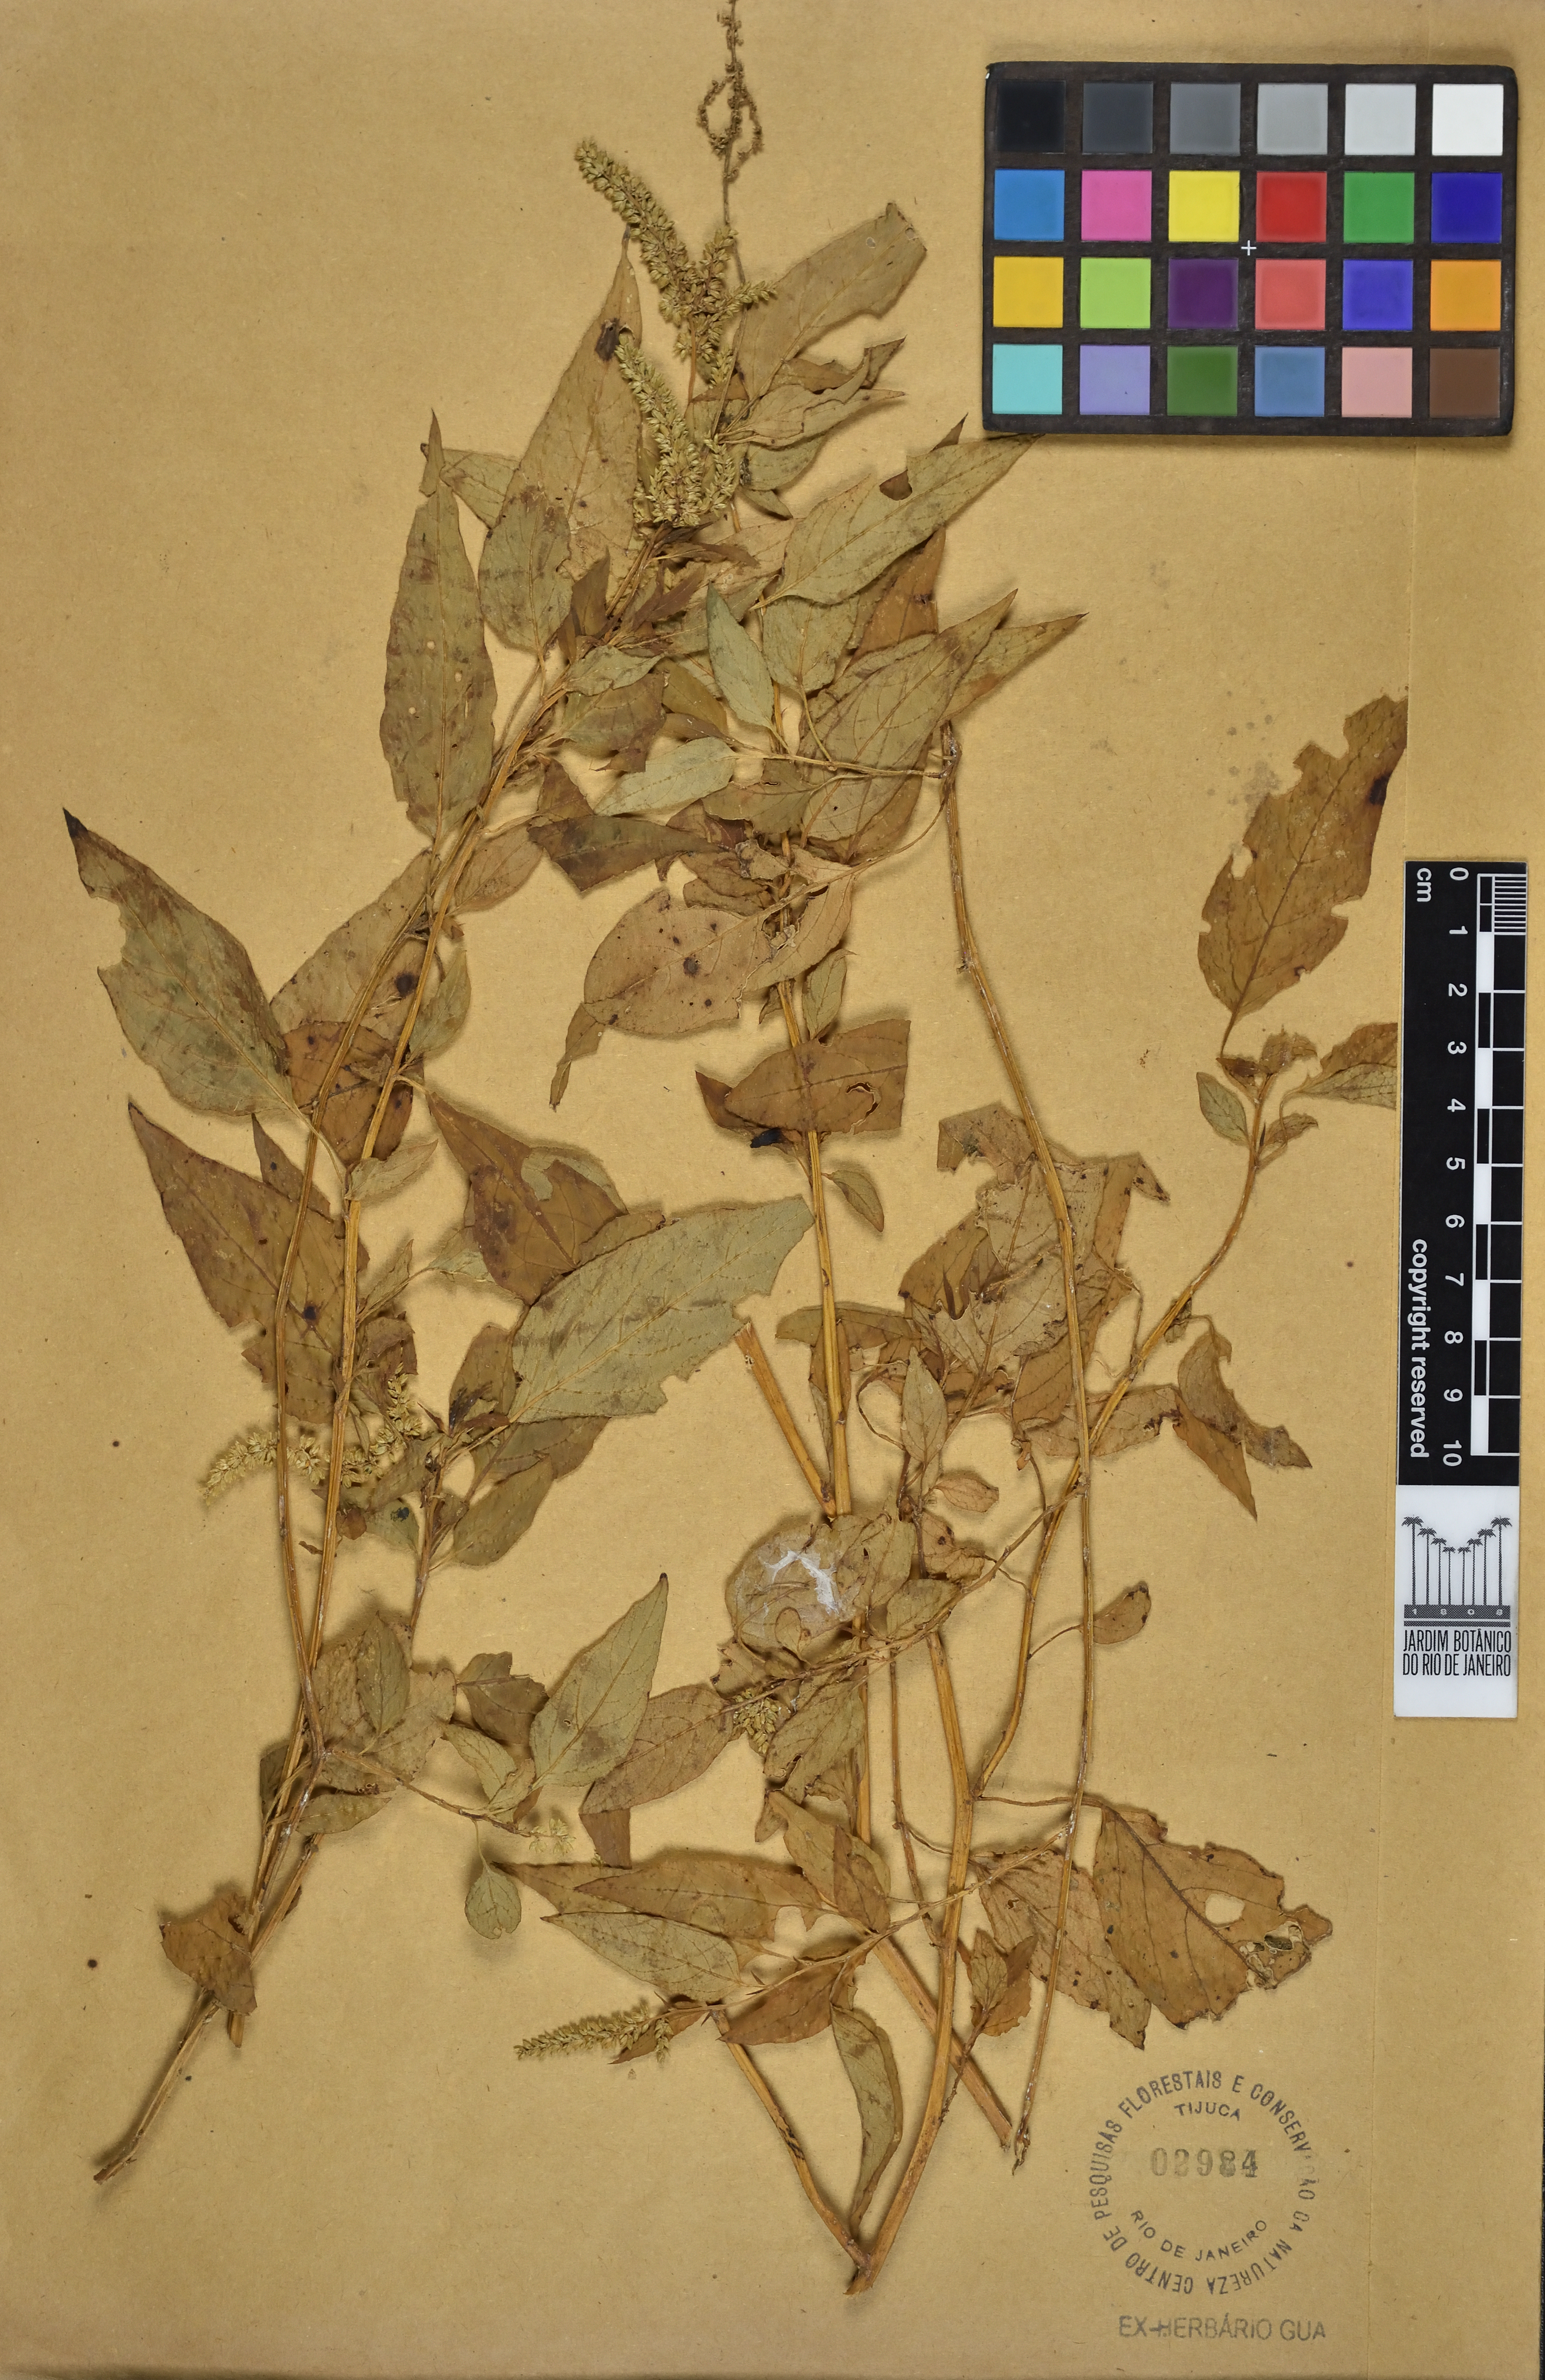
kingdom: Plantae
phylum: Tracheophyta
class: Magnoliopsida
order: Caryophyllales
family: Amaranthaceae
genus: Chamissoa
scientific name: Chamissoa acuminata
